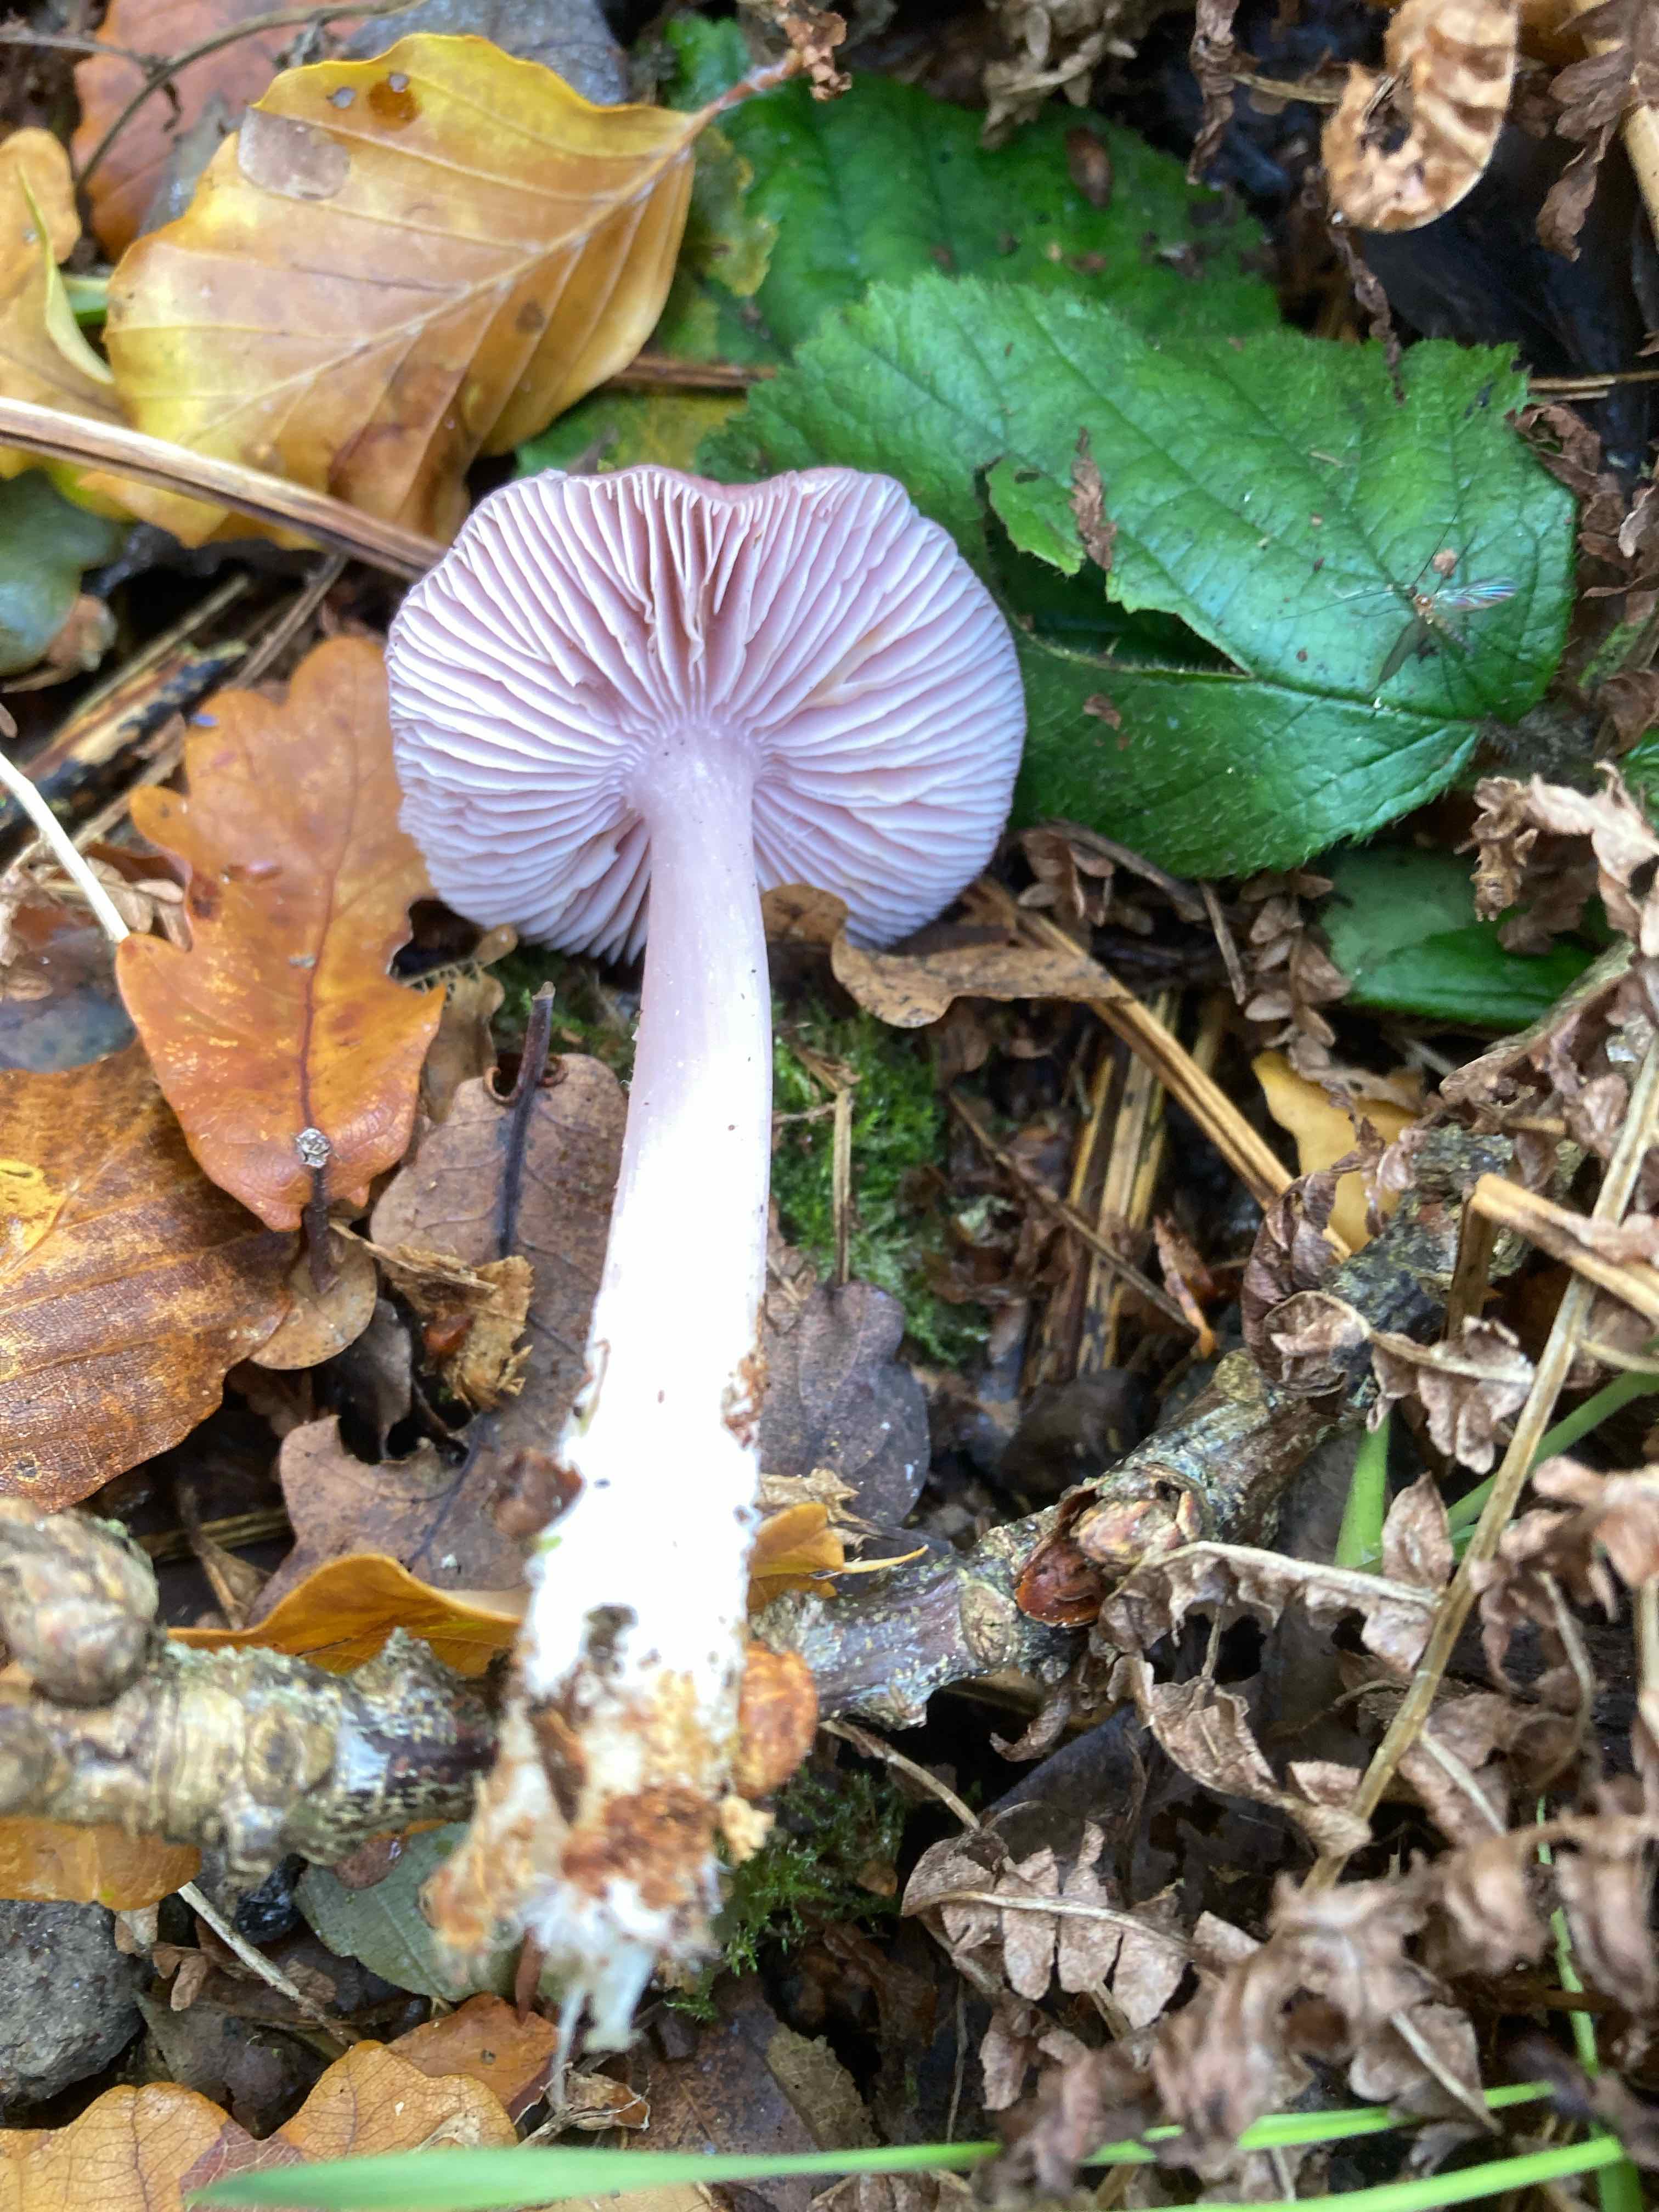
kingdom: Fungi
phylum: Basidiomycota
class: Agaricomycetes
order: Agaricales
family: Mycenaceae
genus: Mycena
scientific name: Mycena rosea
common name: rosa huesvamp
